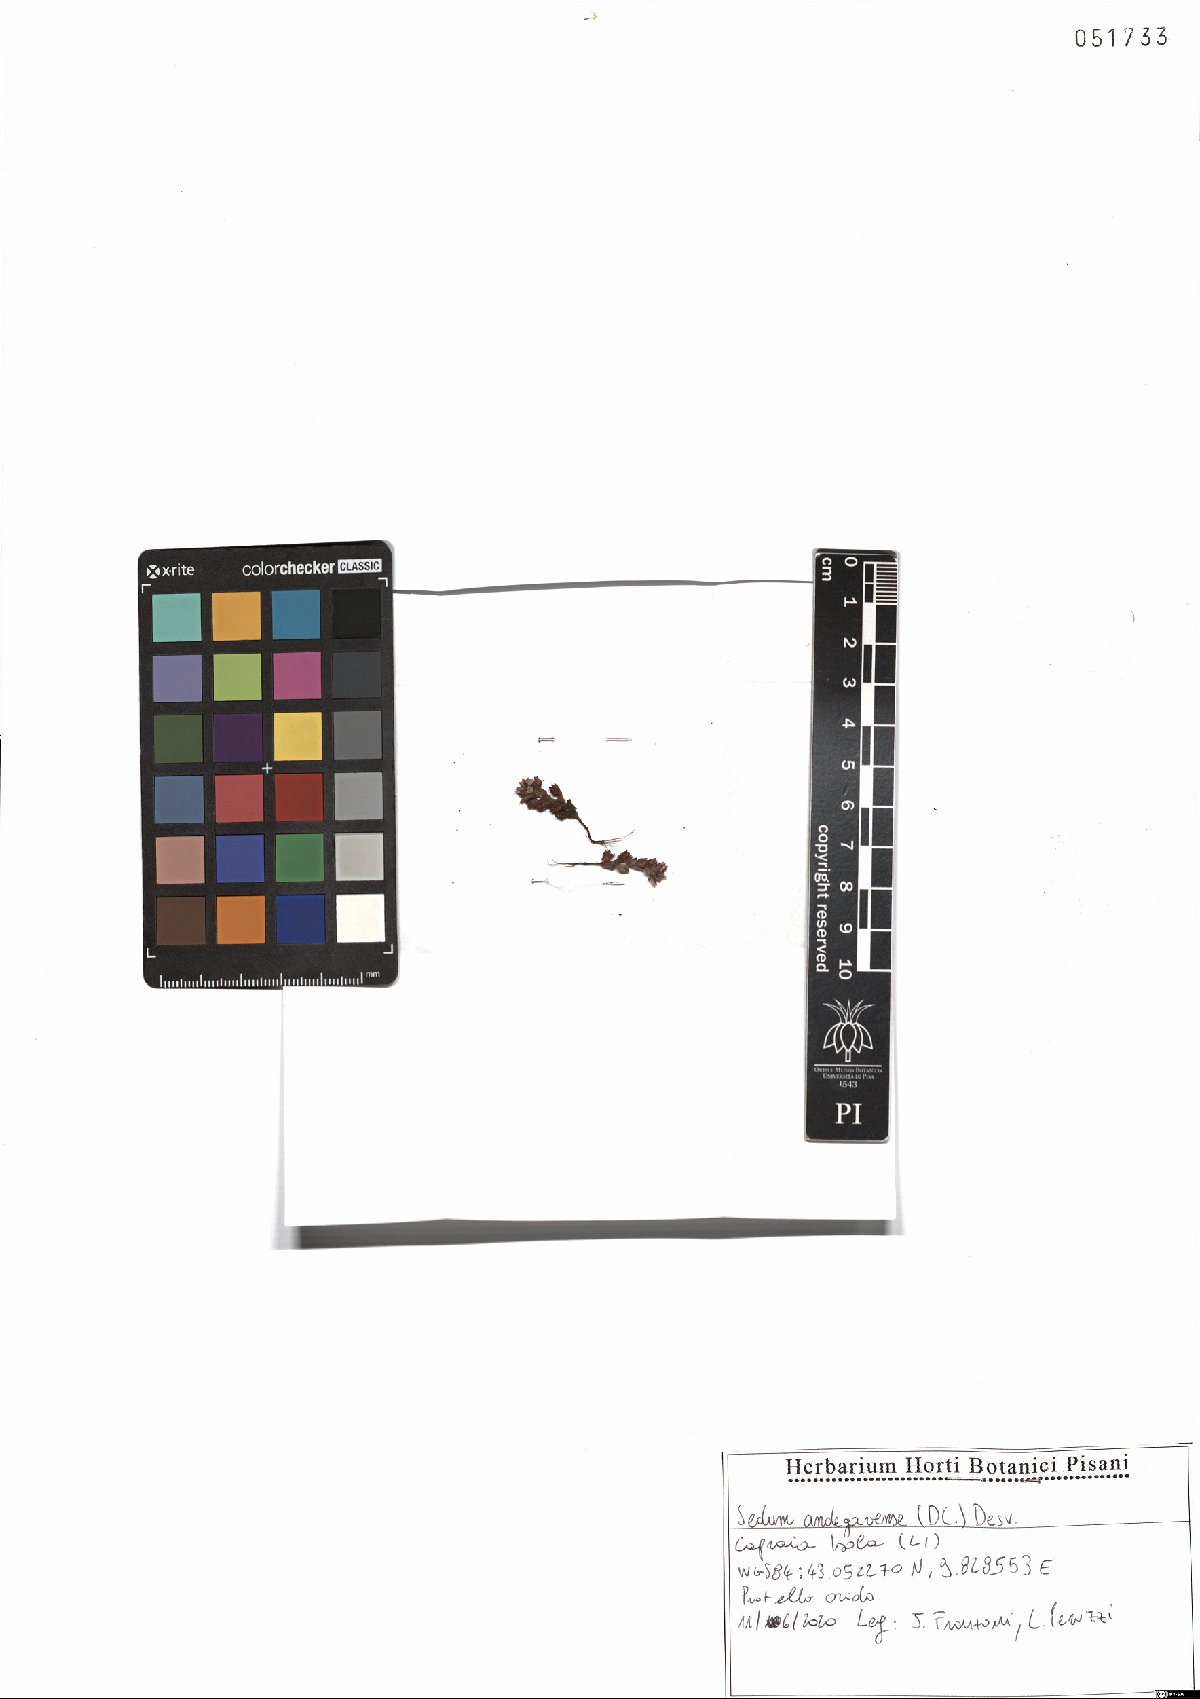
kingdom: Plantae
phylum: Tracheophyta
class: Magnoliopsida
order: Saxifragales
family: Crassulaceae
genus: Sedum
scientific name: Sedum andegavense
